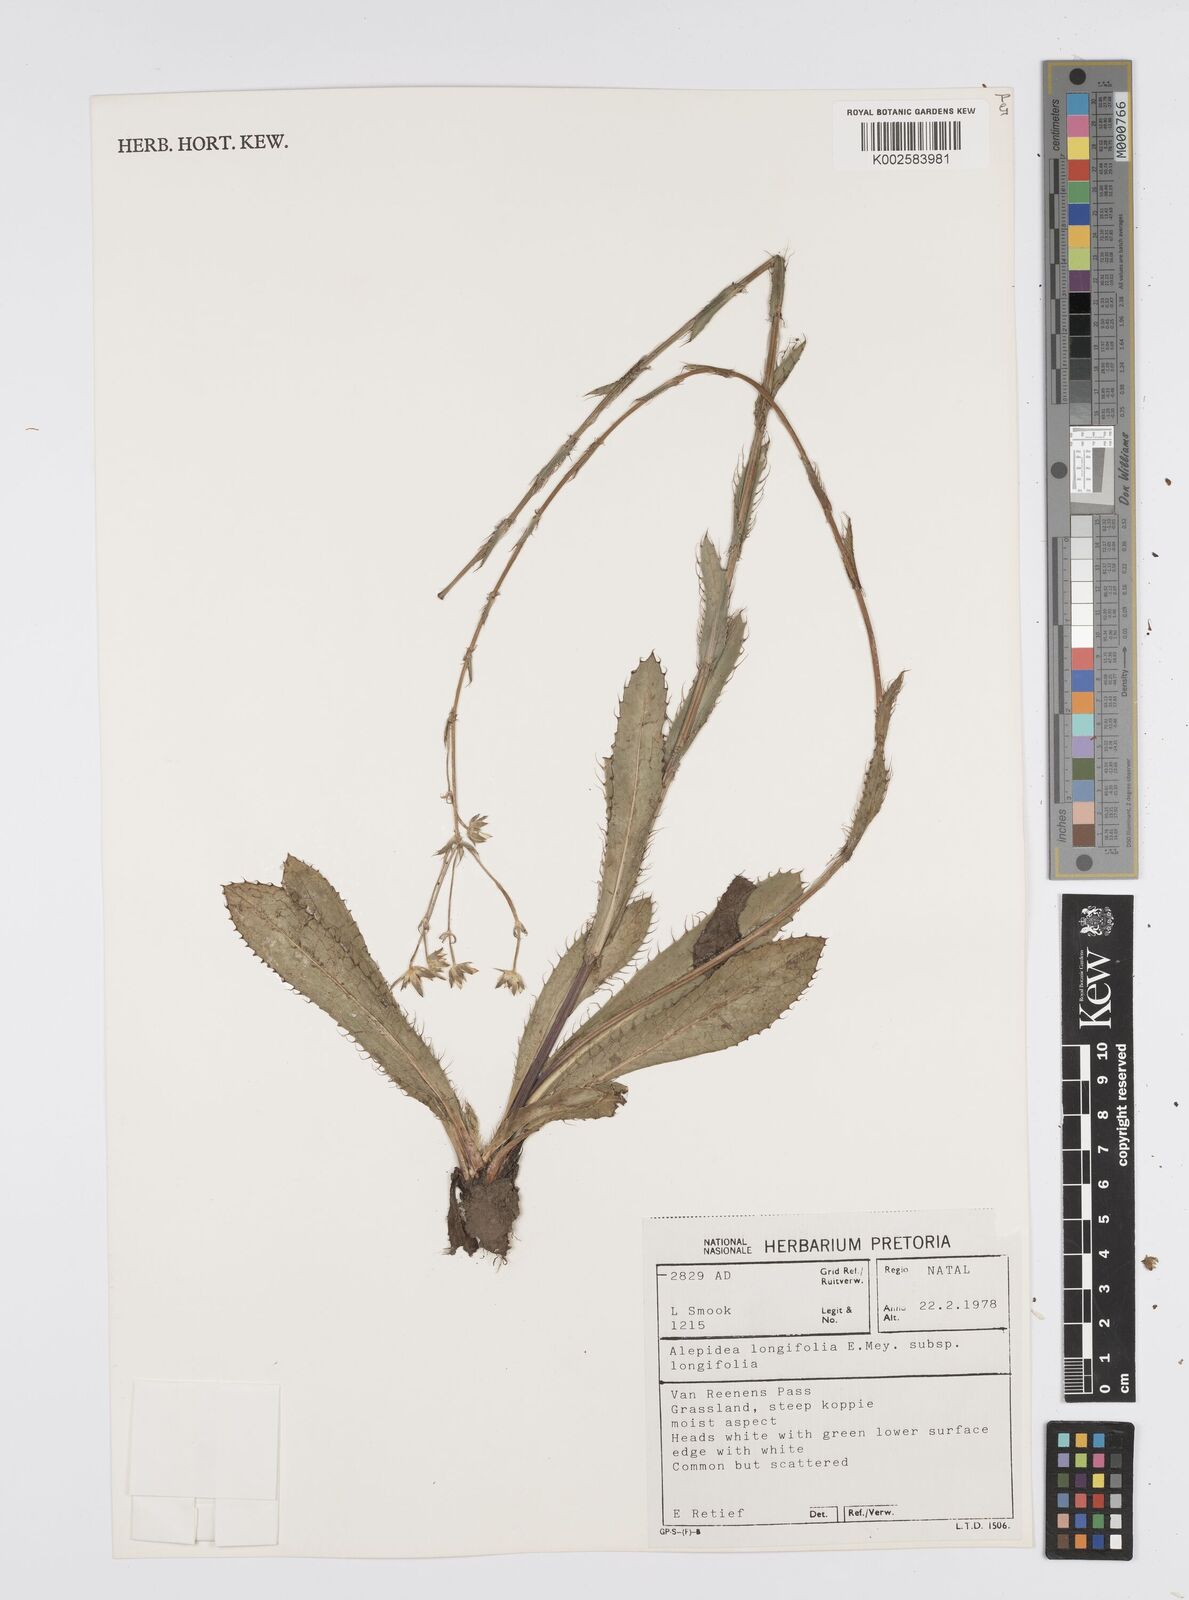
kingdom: Plantae
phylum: Tracheophyta
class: Magnoliopsida
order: Apiales
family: Apiaceae
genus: Alepidea
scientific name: Alepidea
